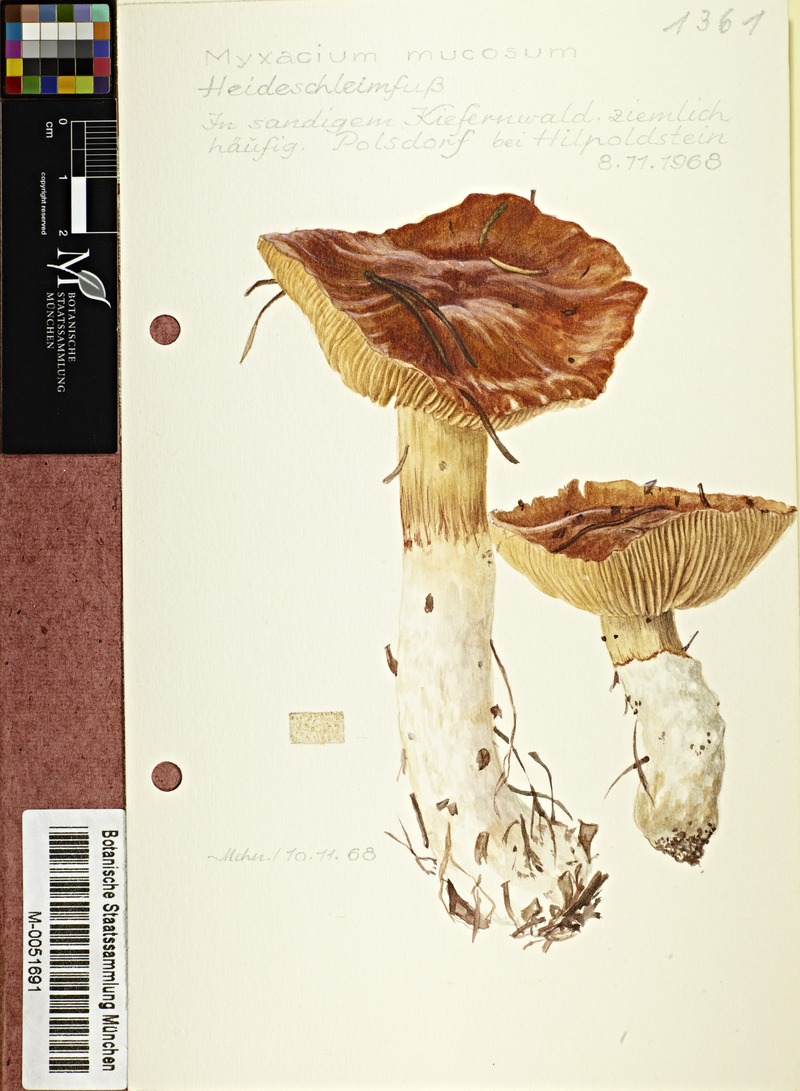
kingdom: Fungi
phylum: Basidiomycota
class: Agaricomycetes
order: Agaricales
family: Cortinariaceae
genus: Cortinarius
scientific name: Cortinarius
